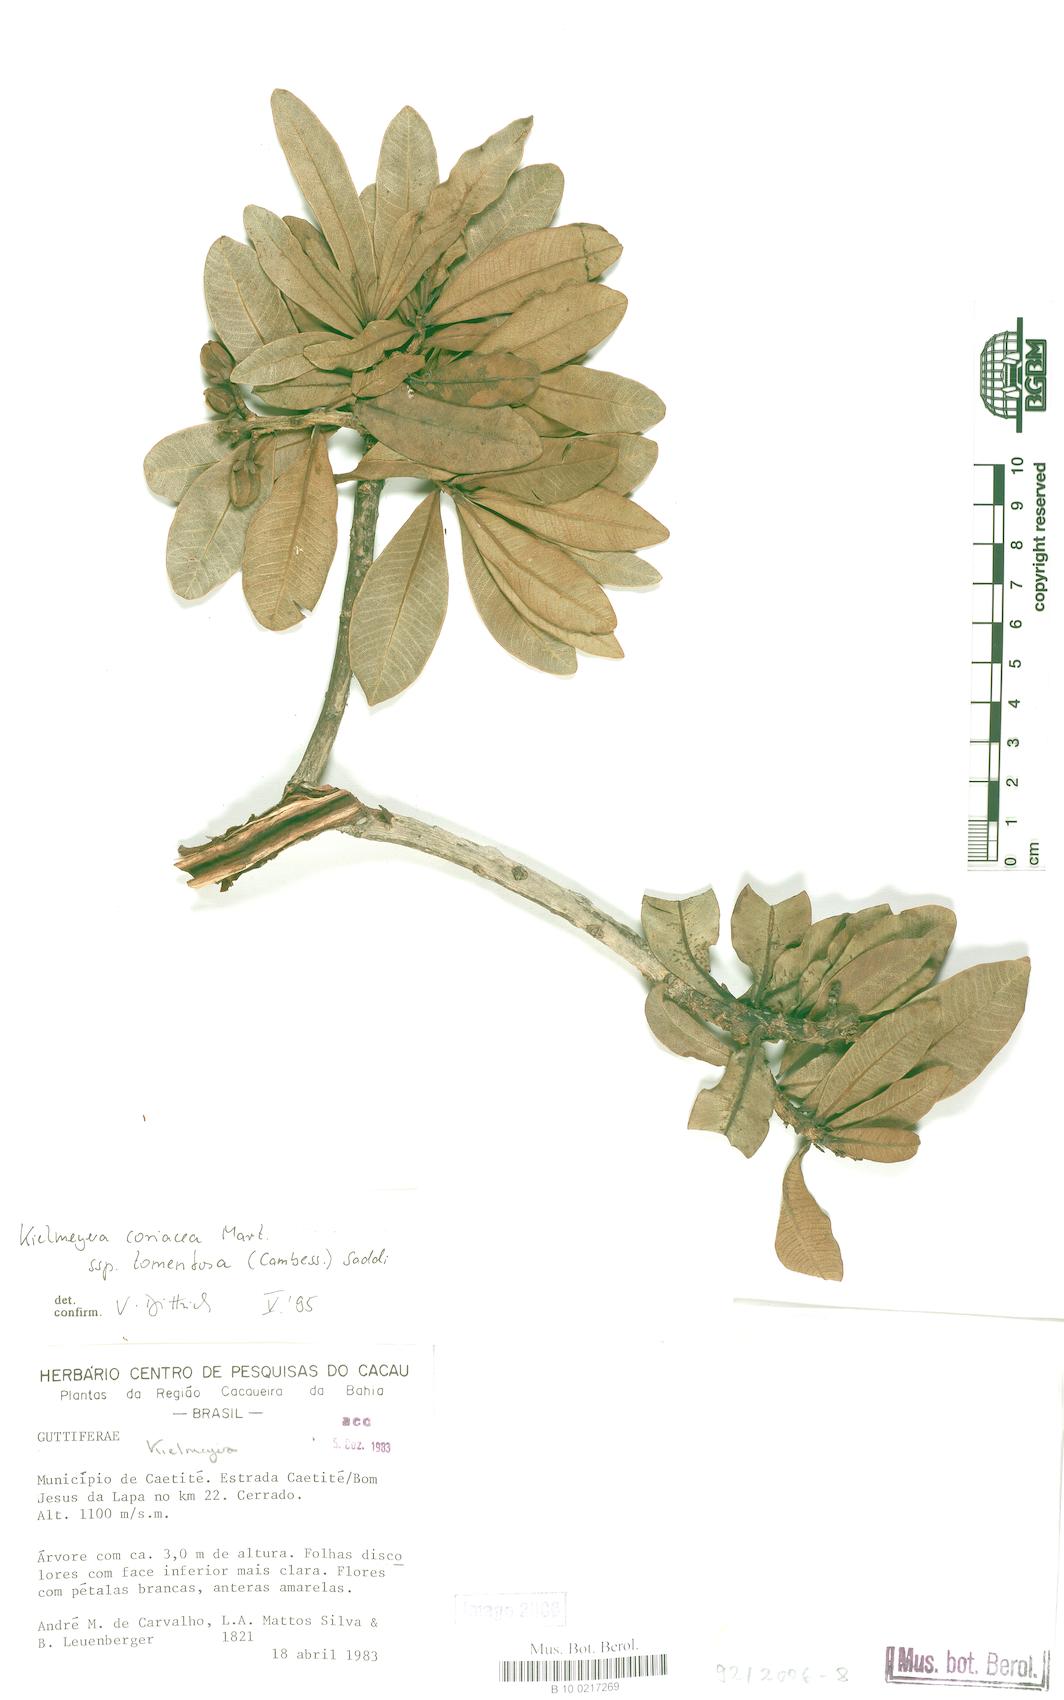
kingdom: Plantae
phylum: Tracheophyta
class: Magnoliopsida
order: Malpighiales
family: Calophyllaceae
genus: Kielmeyera
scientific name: Kielmeyera tomentosa
